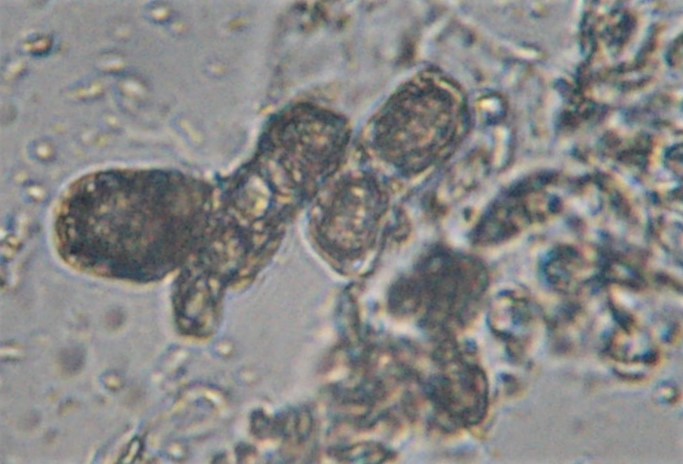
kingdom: Fungi
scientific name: Fungi
